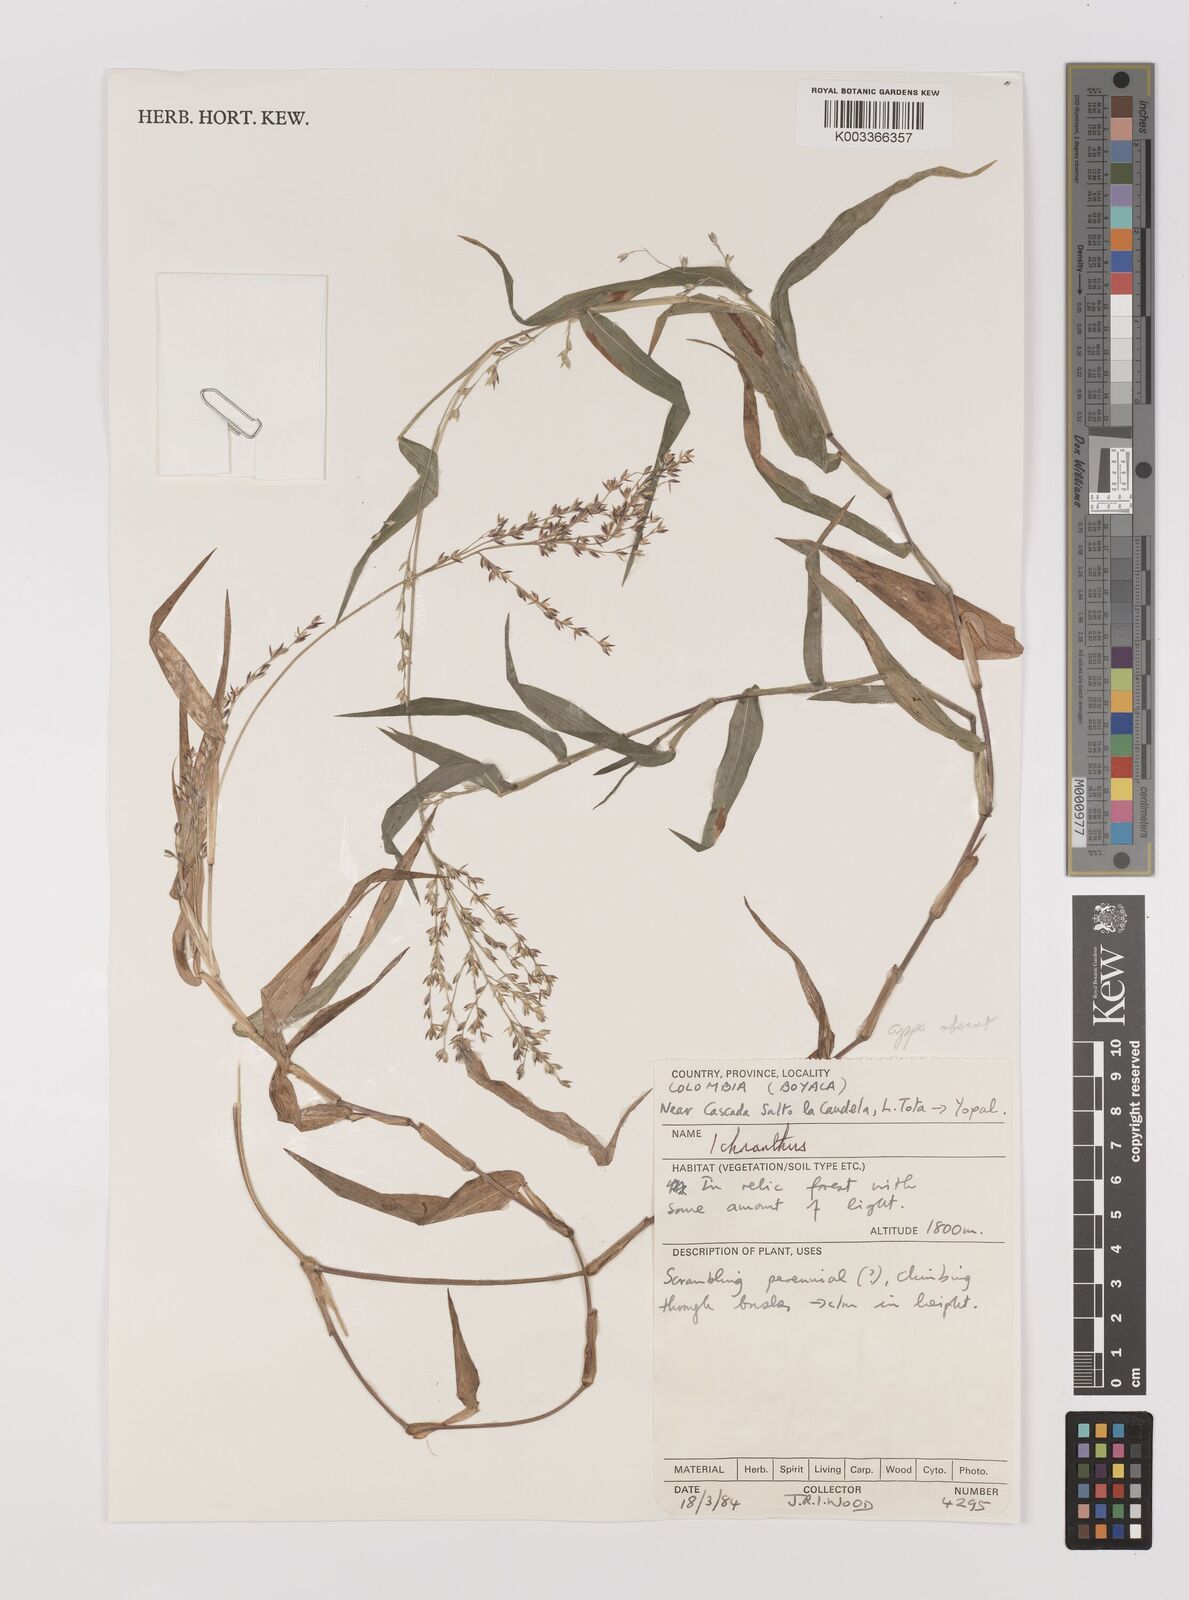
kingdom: Plantae
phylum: Tracheophyta
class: Liliopsida
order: Poales
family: Poaceae
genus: Ichnanthus
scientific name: Ichnanthus tenuis
